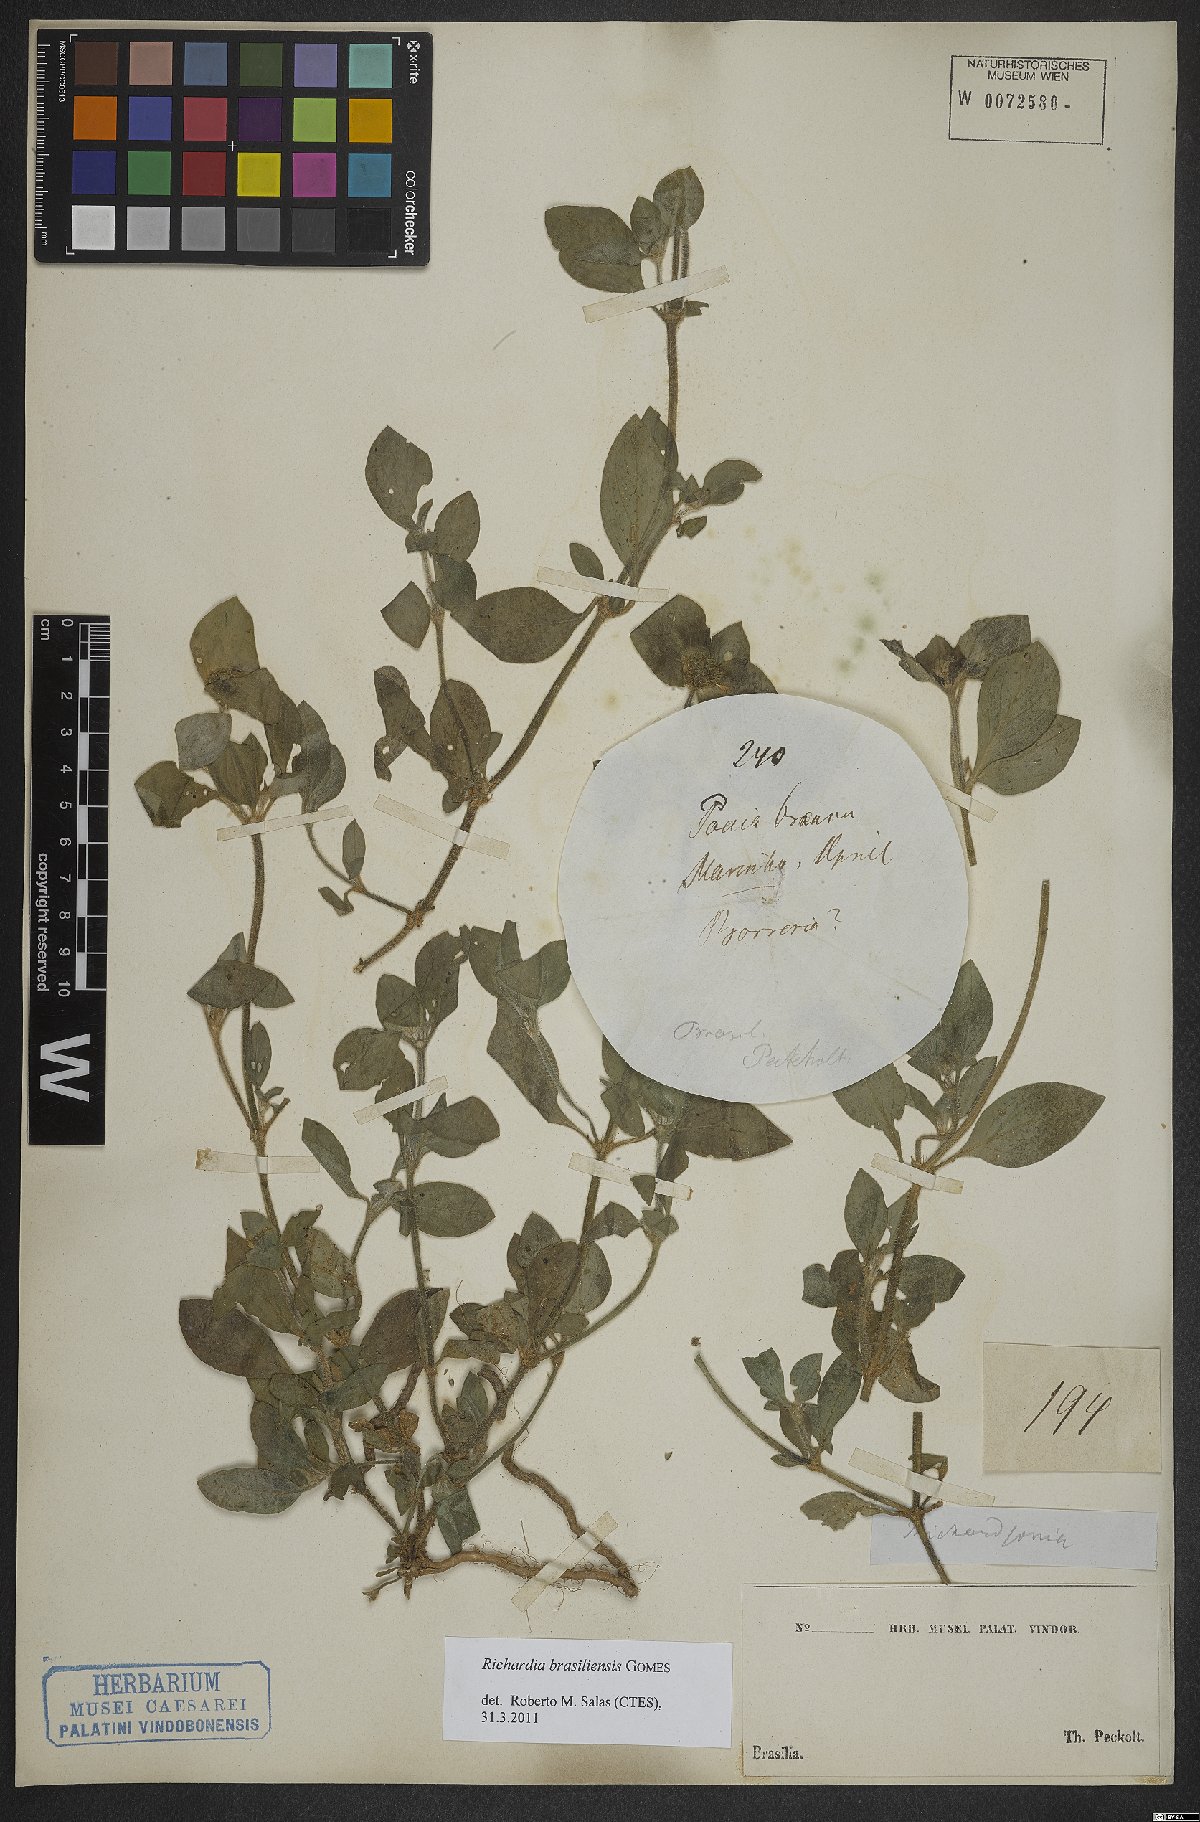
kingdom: Plantae
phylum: Tracheophyta
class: Magnoliopsida
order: Gentianales
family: Rubiaceae
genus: Richardia
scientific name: Richardia brasiliensis
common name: Tropical mexican clover
